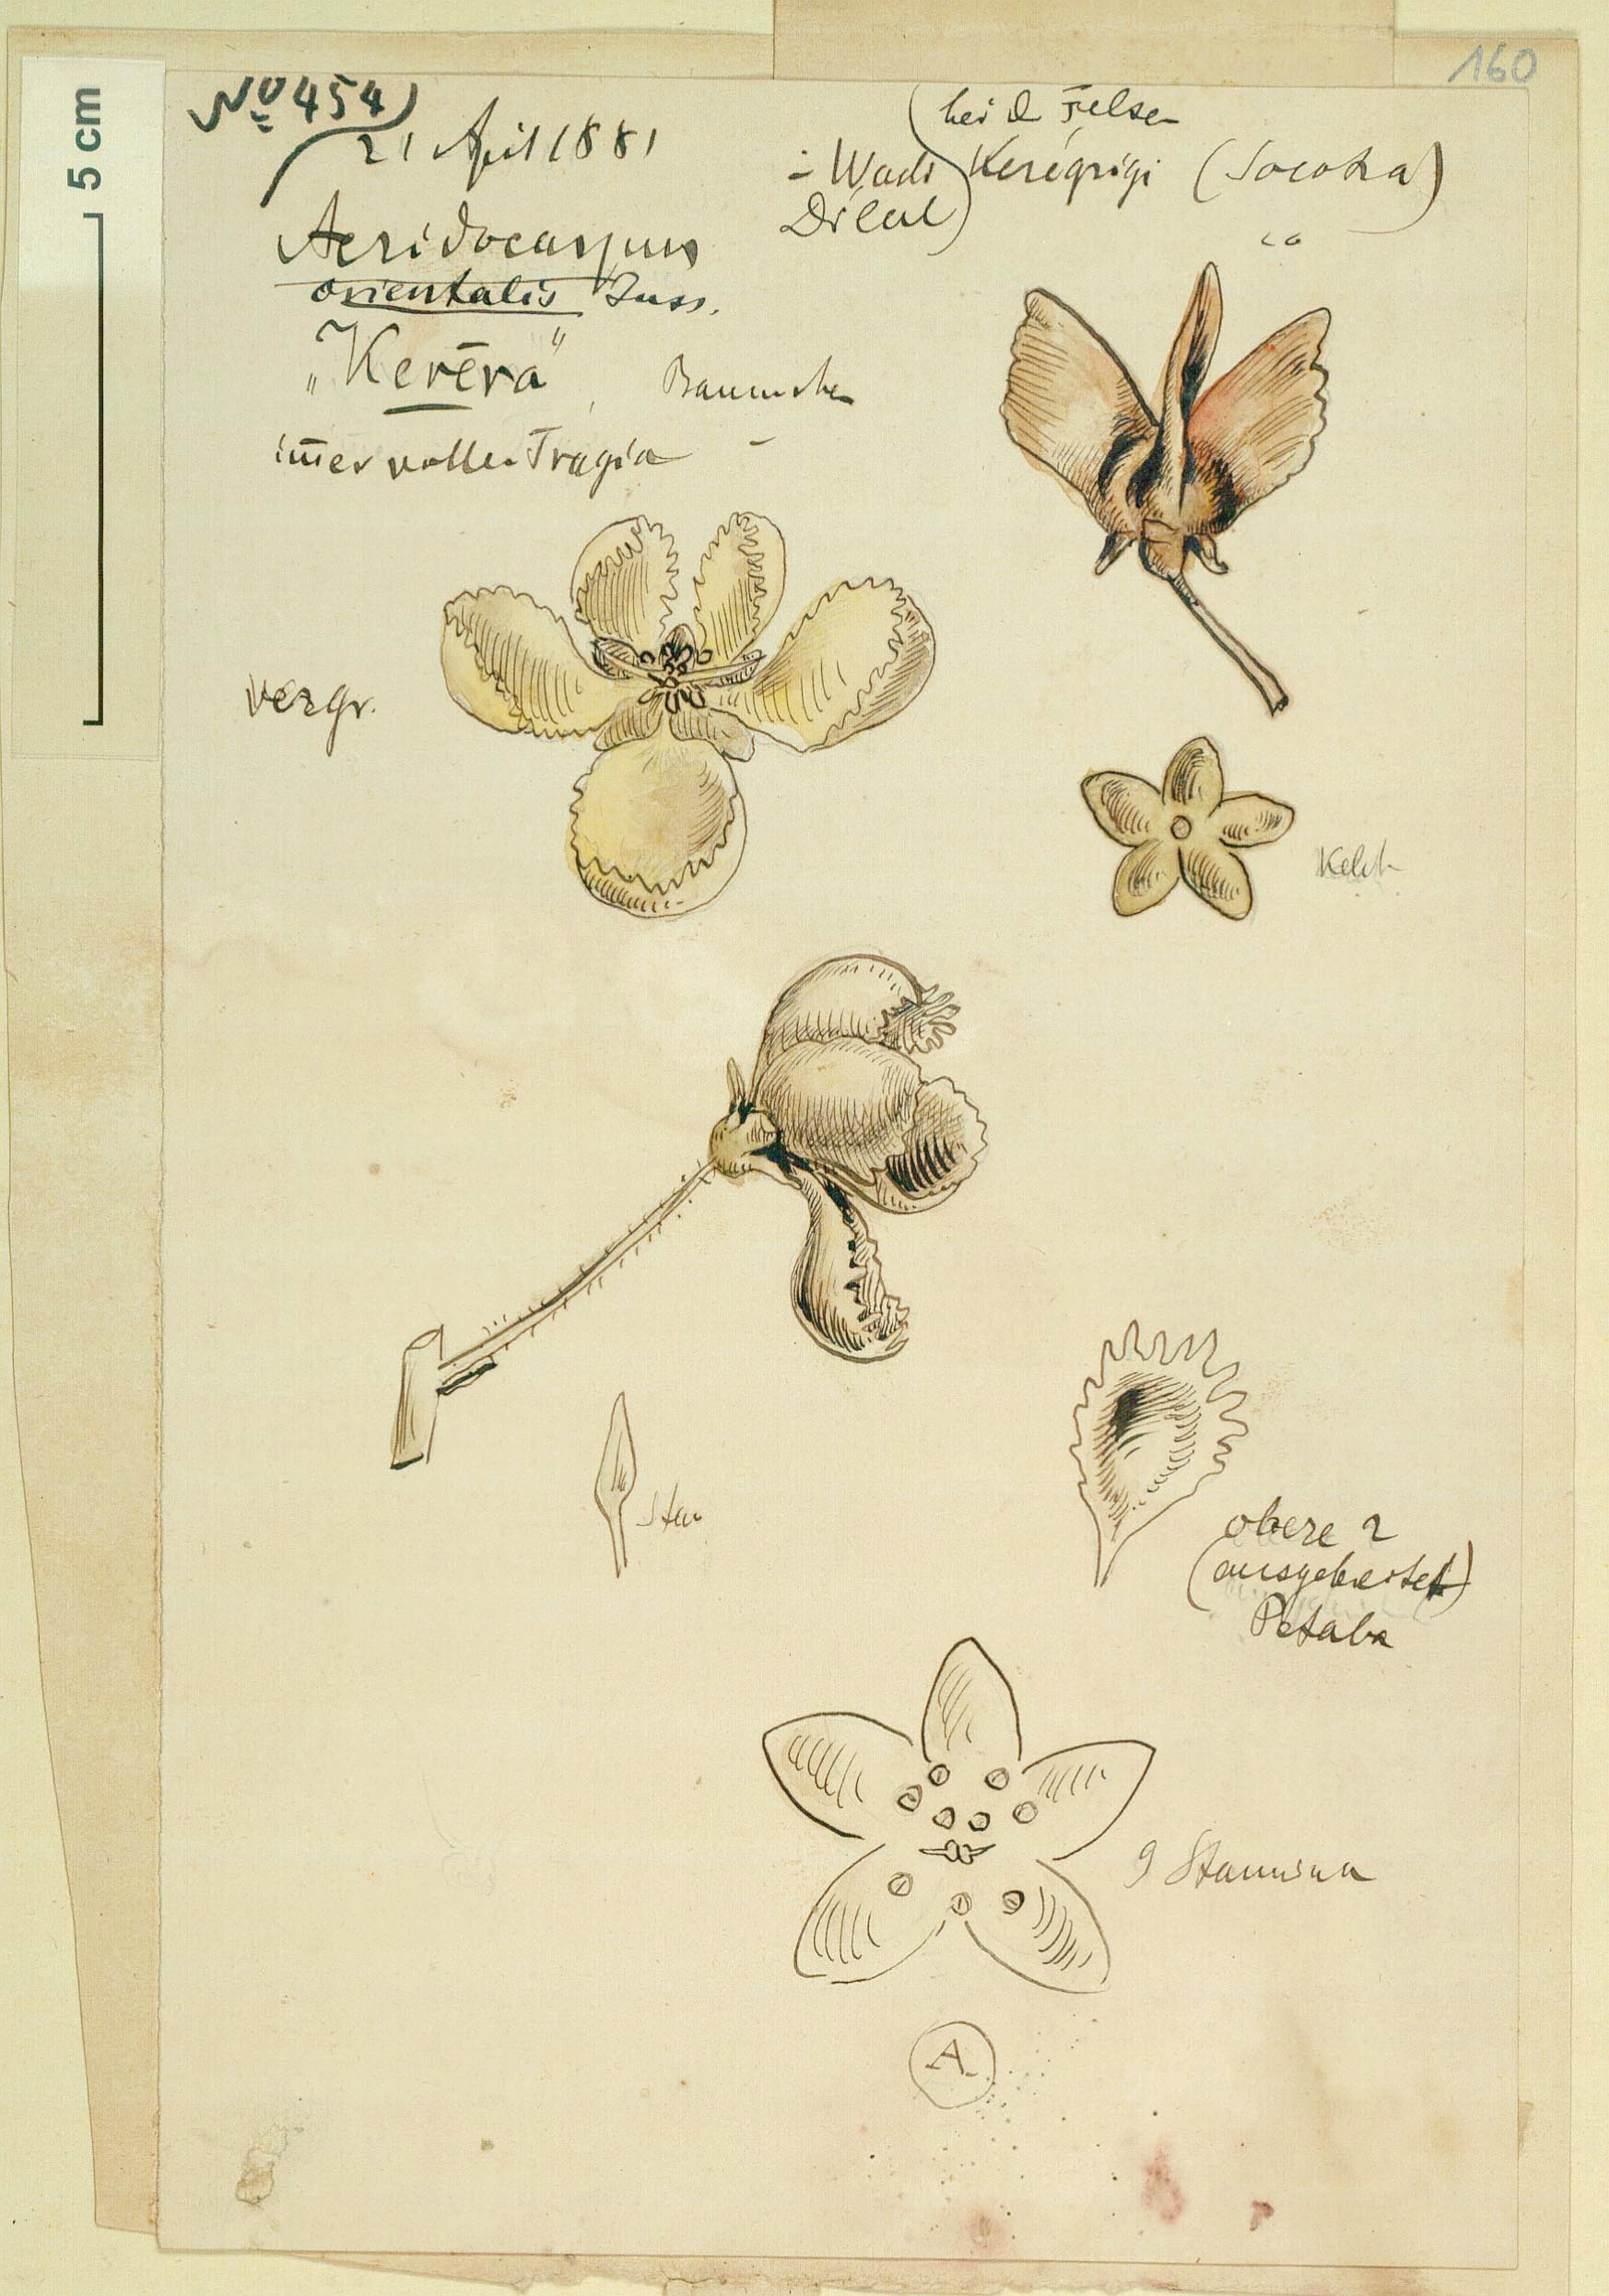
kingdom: Plantae
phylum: Tracheophyta
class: Magnoliopsida
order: Malpighiales
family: Malpighiaceae
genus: Acridocarpus
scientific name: Acridocarpus socotranus
